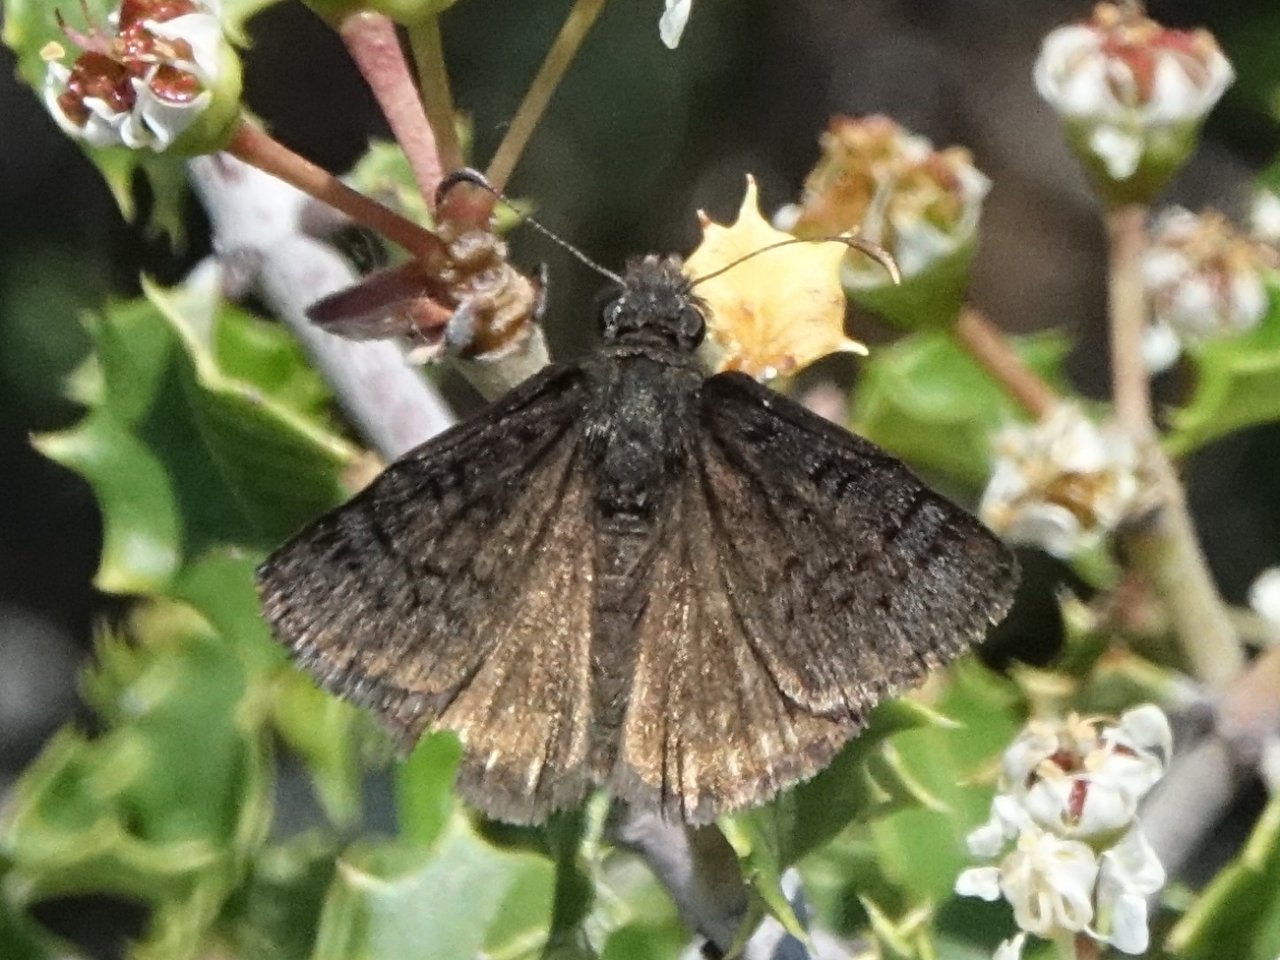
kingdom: Animalia
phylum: Arthropoda
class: Insecta
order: Lepidoptera
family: Hesperiidae
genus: Erynnis
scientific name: Erynnis brizo
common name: Sleepy Duskywing
